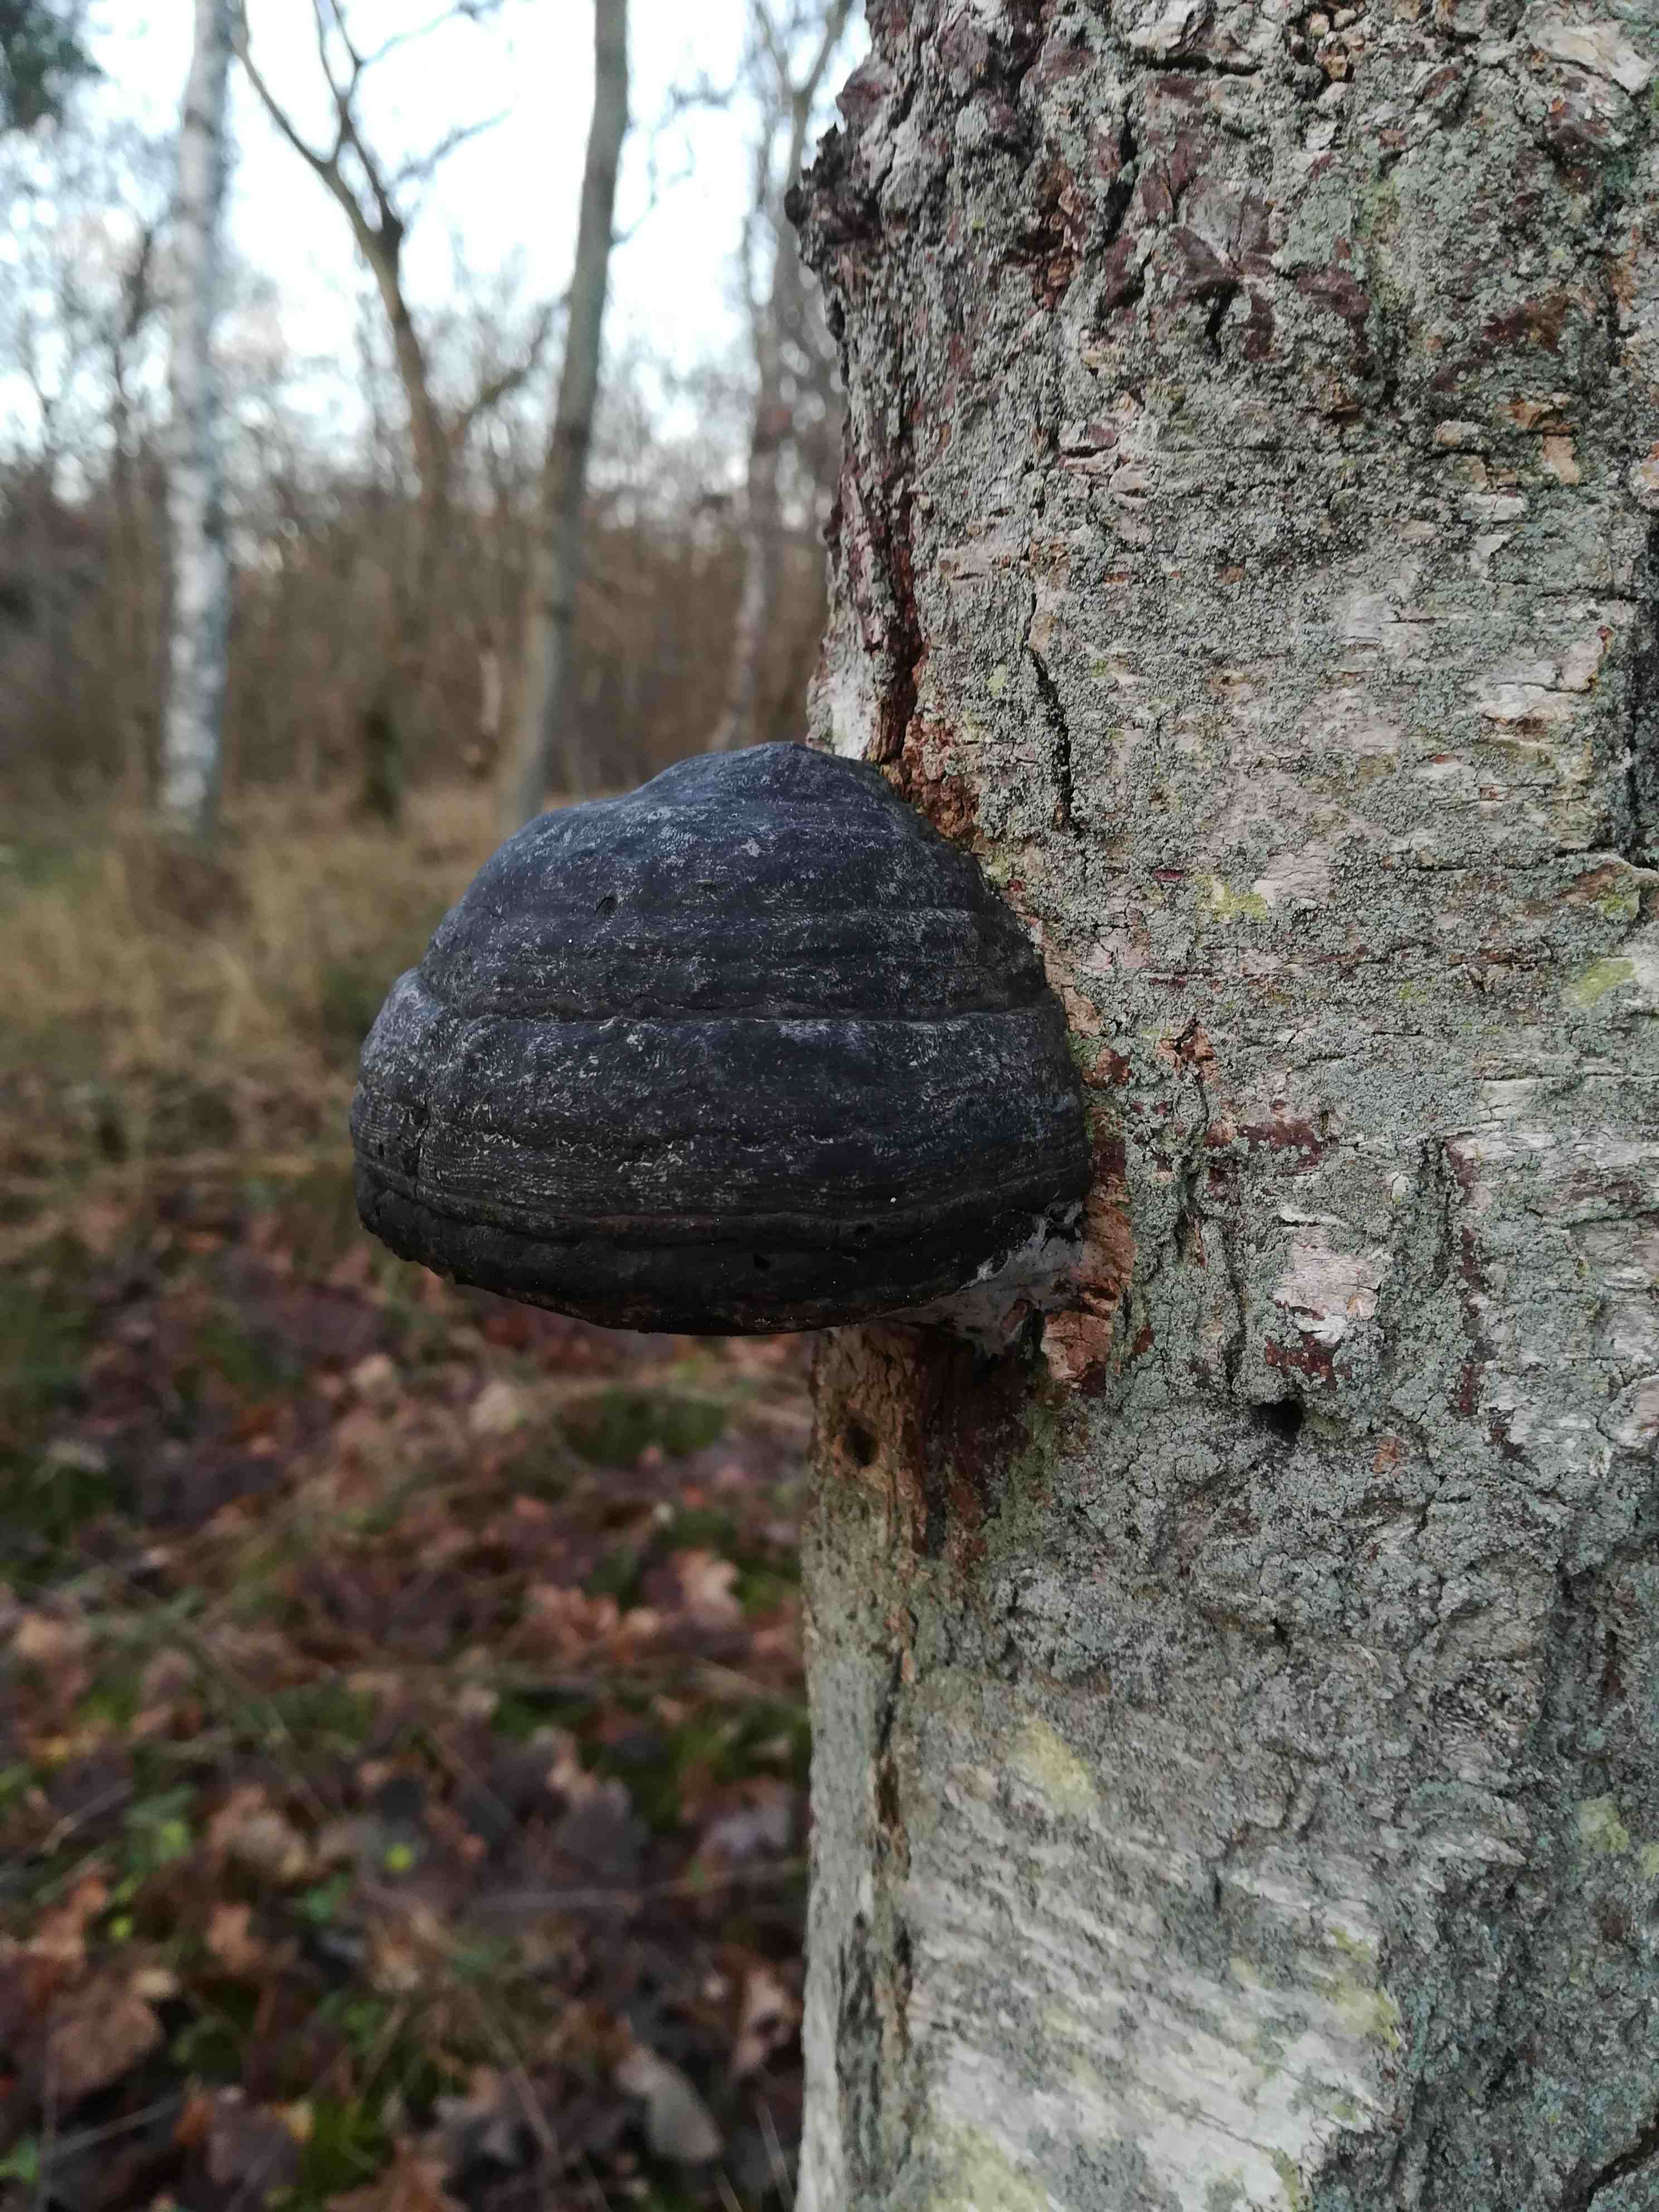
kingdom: Fungi
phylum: Basidiomycota
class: Agaricomycetes
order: Polyporales
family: Polyporaceae
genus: Fomes
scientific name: Fomes fomentarius
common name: tøndersvamp
